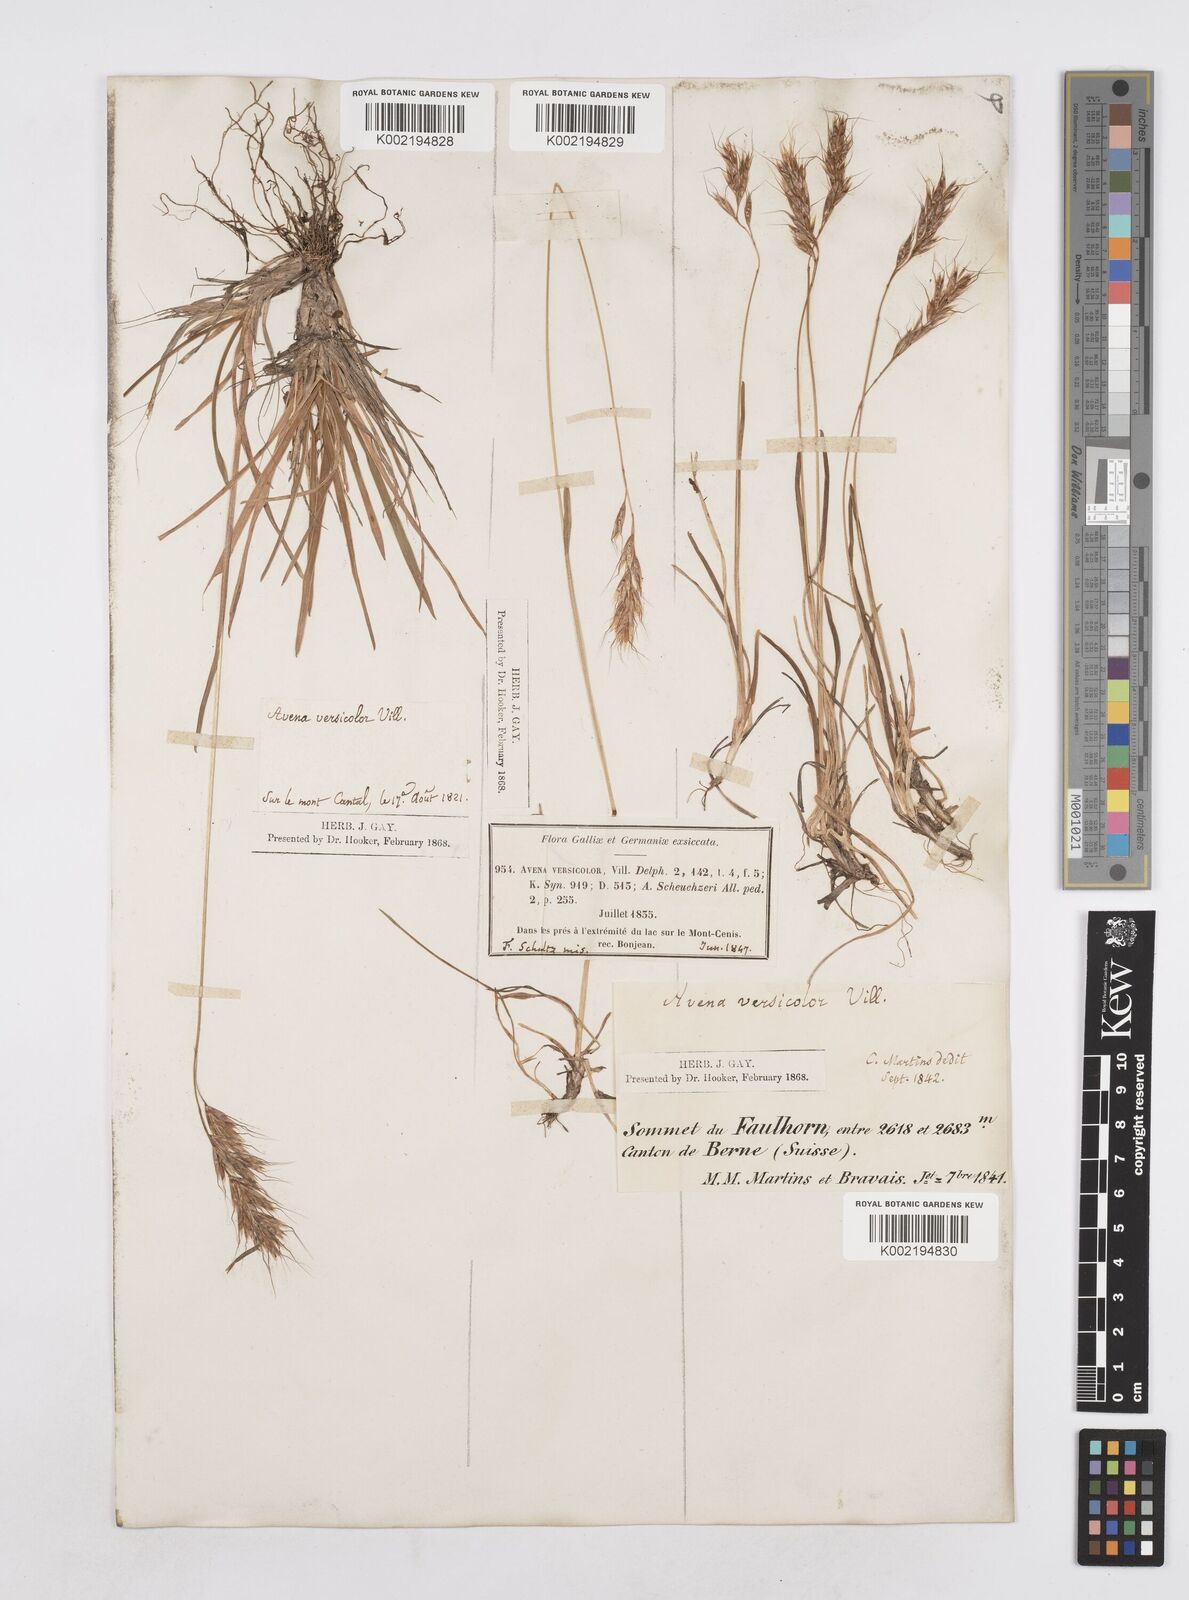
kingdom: Plantae
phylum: Tracheophyta
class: Liliopsida
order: Poales
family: Poaceae
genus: Helictotrichon
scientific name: Helictotrichon
